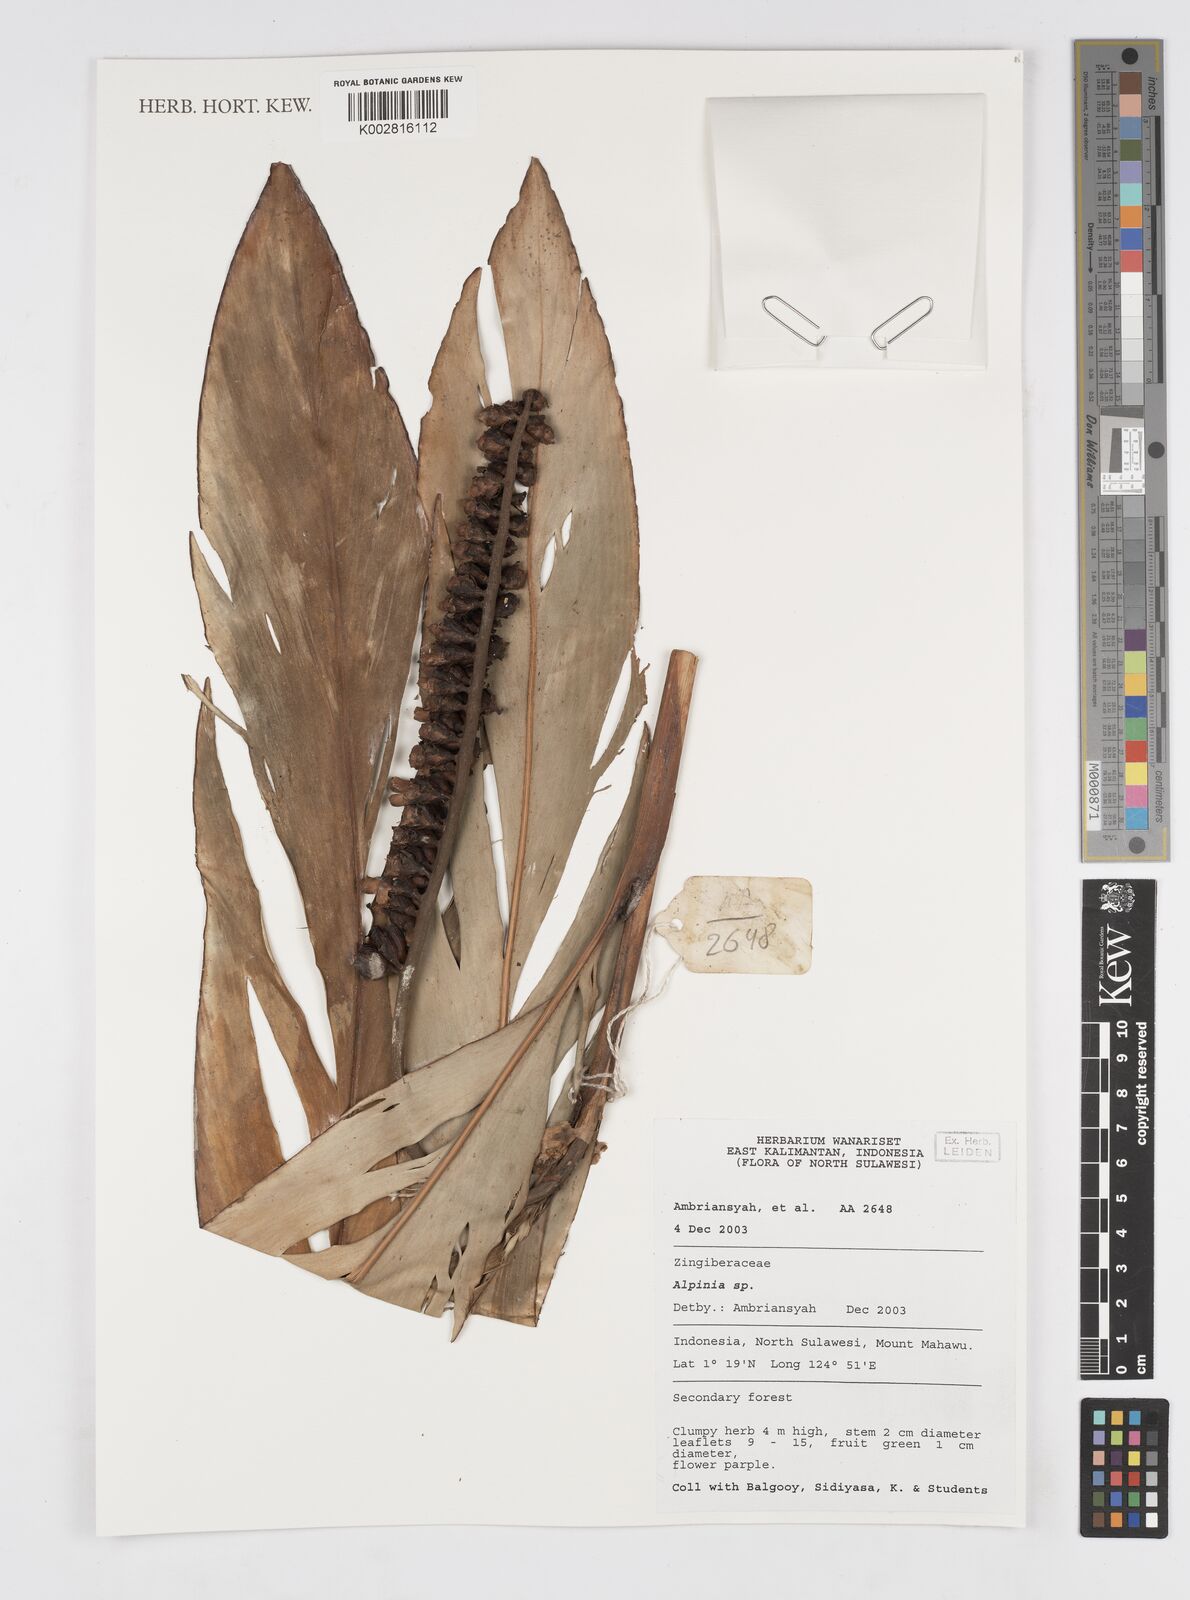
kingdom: Plantae
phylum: Tracheophyta
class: Liliopsida
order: Zingiberales
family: Zingiberaceae
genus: Alpinia
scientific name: Alpinia
